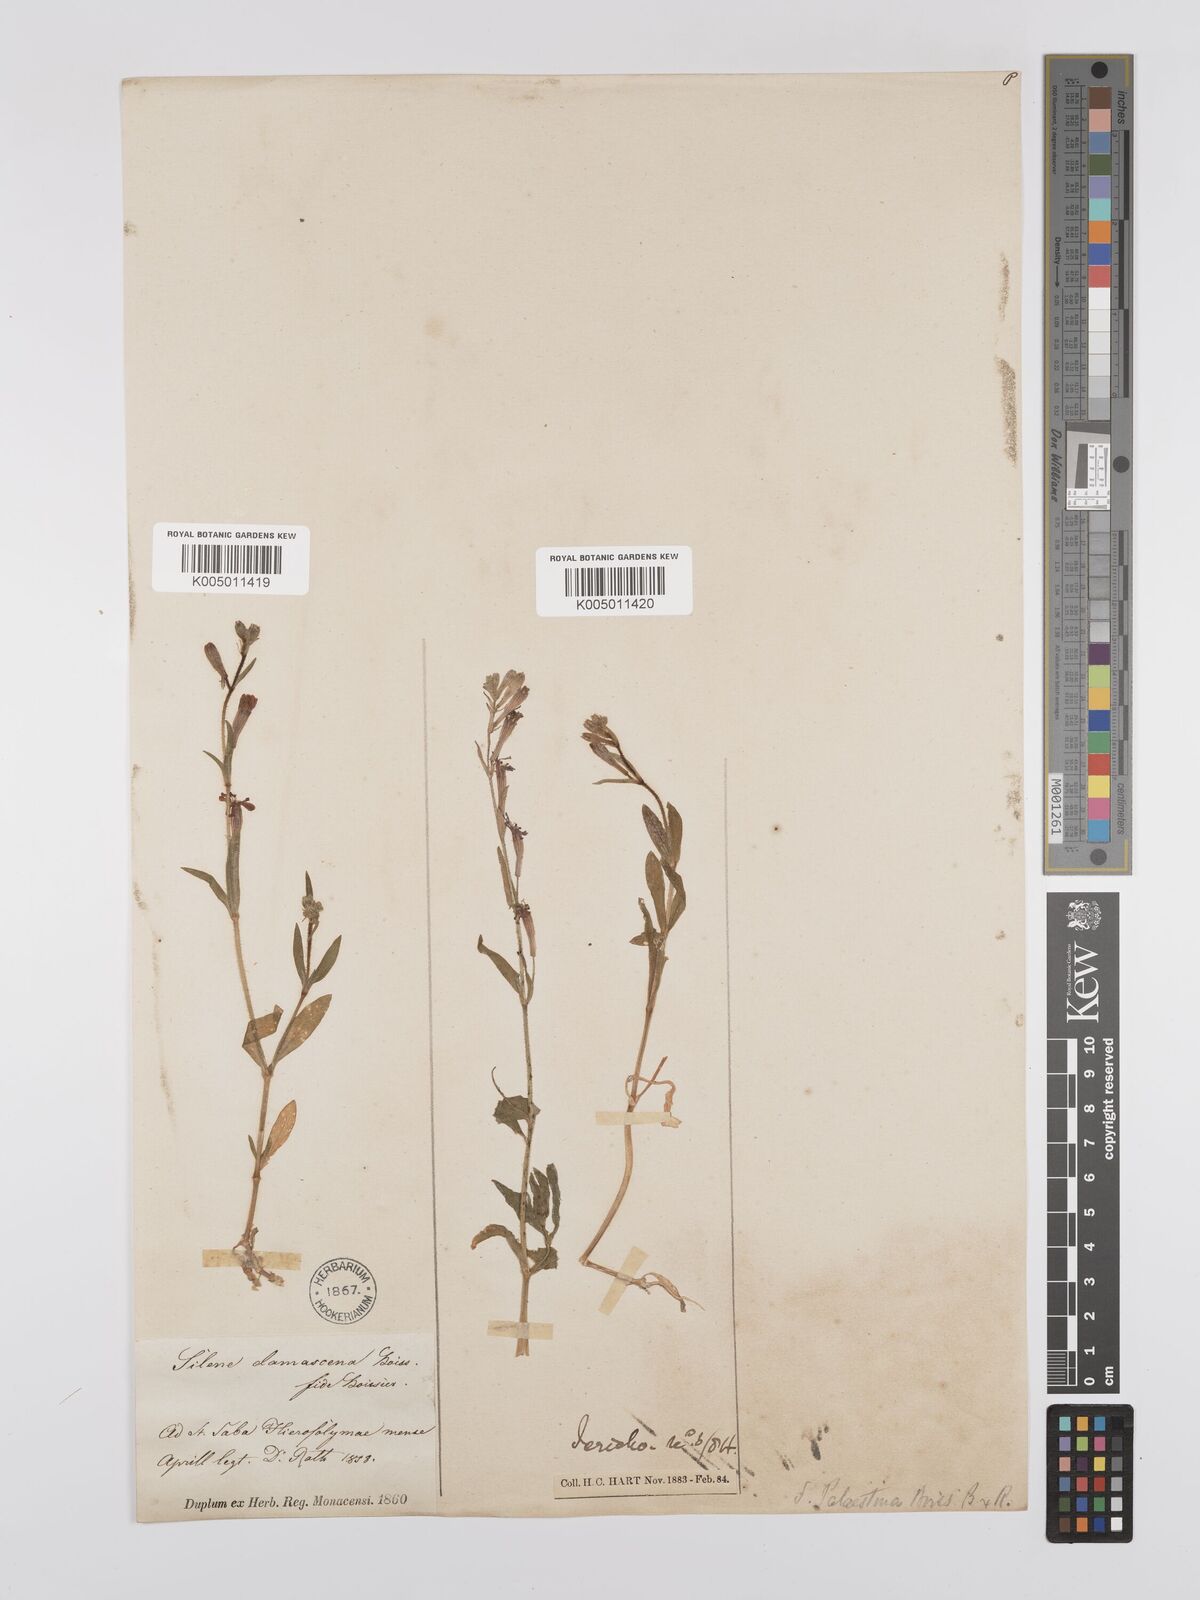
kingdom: Plantae
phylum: Tracheophyta
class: Magnoliopsida
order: Caryophyllales
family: Caryophyllaceae
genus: Silene
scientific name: Silene damascena
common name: Damascus catchfly
